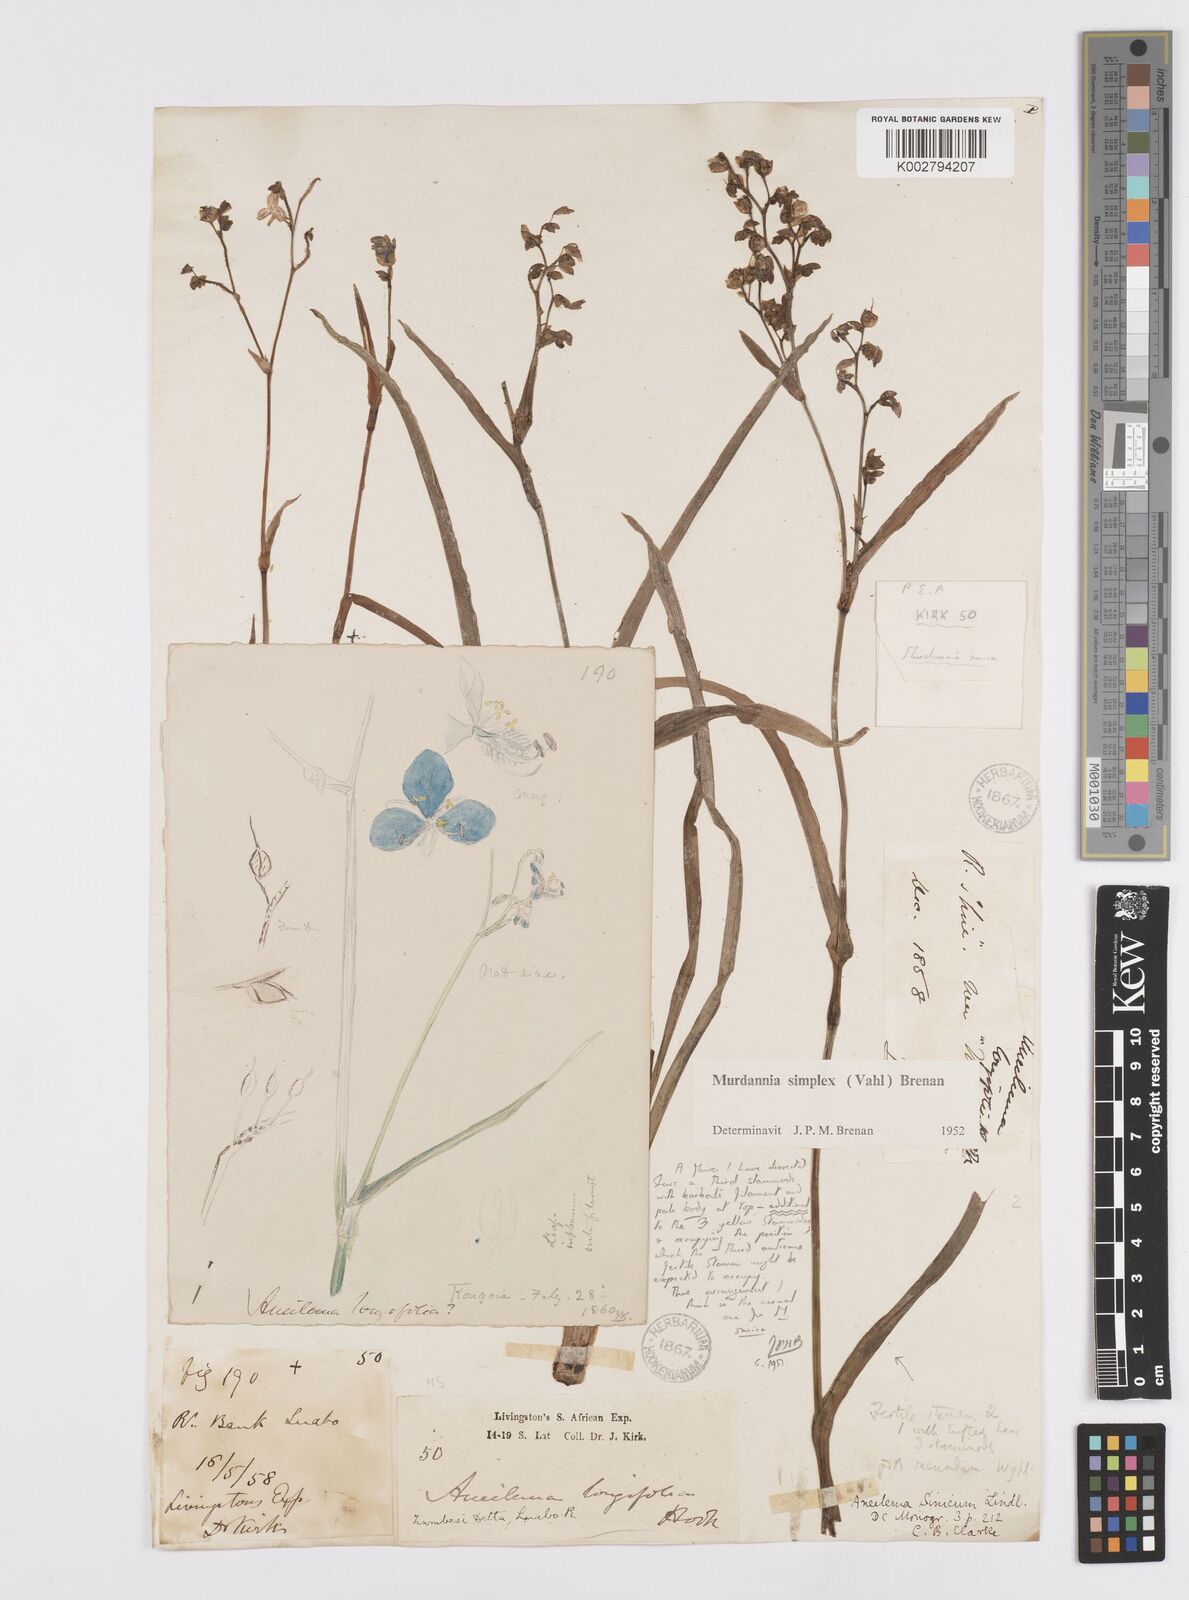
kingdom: Plantae
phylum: Tracheophyta
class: Liliopsida
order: Commelinales
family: Commelinaceae
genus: Murdannia
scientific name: Murdannia simplex
